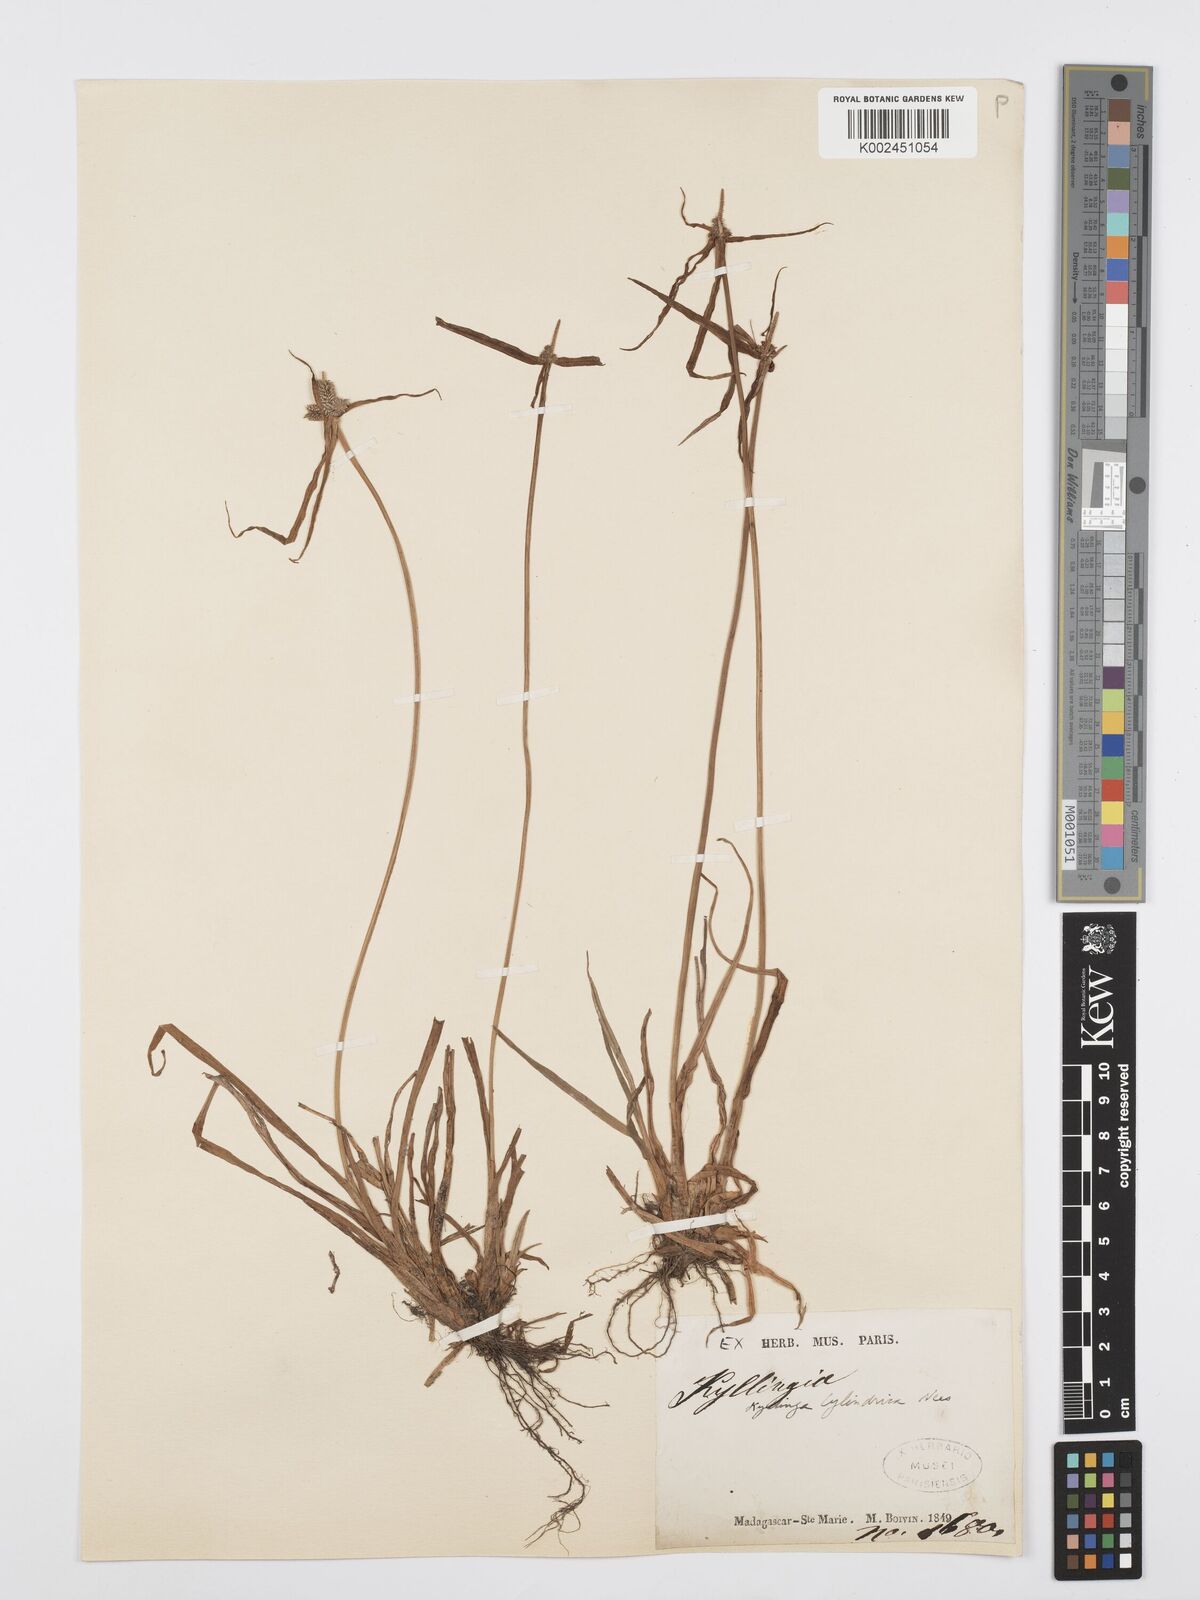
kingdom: Plantae
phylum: Tracheophyta
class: Liliopsida
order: Poales
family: Cyperaceae
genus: Cyperus
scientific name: Cyperus
